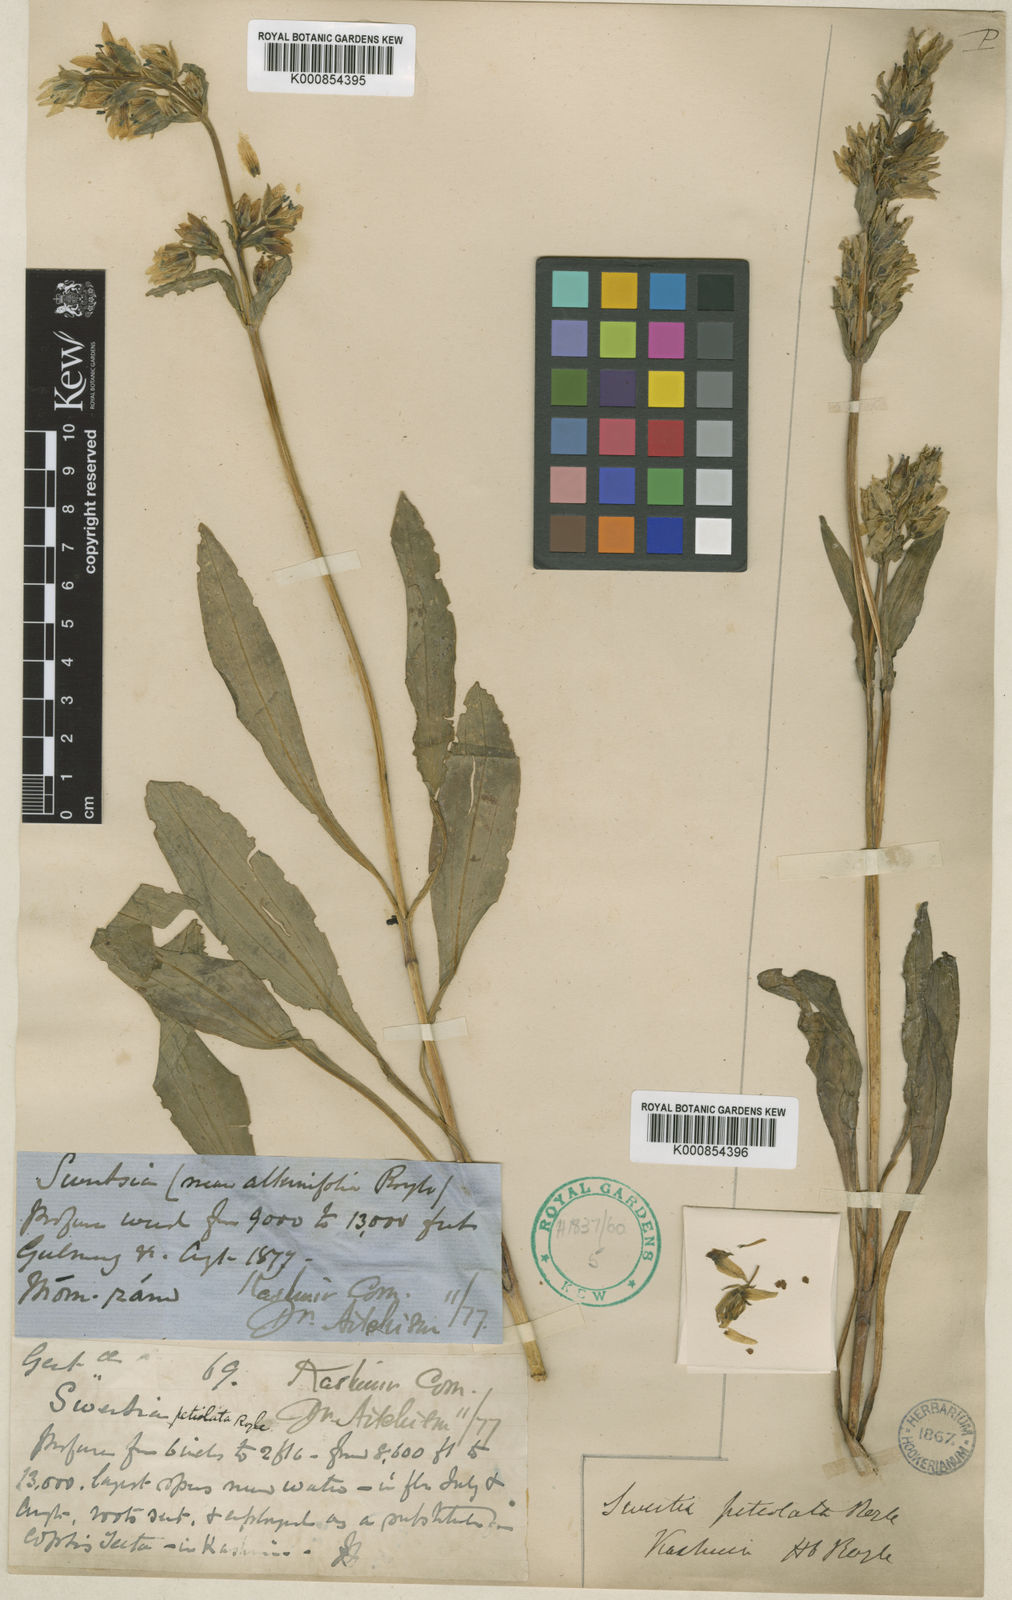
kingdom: Plantae
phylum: Tracheophyta
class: Magnoliopsida
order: Gentianales
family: Gentianaceae
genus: Swertia
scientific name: Swertia
